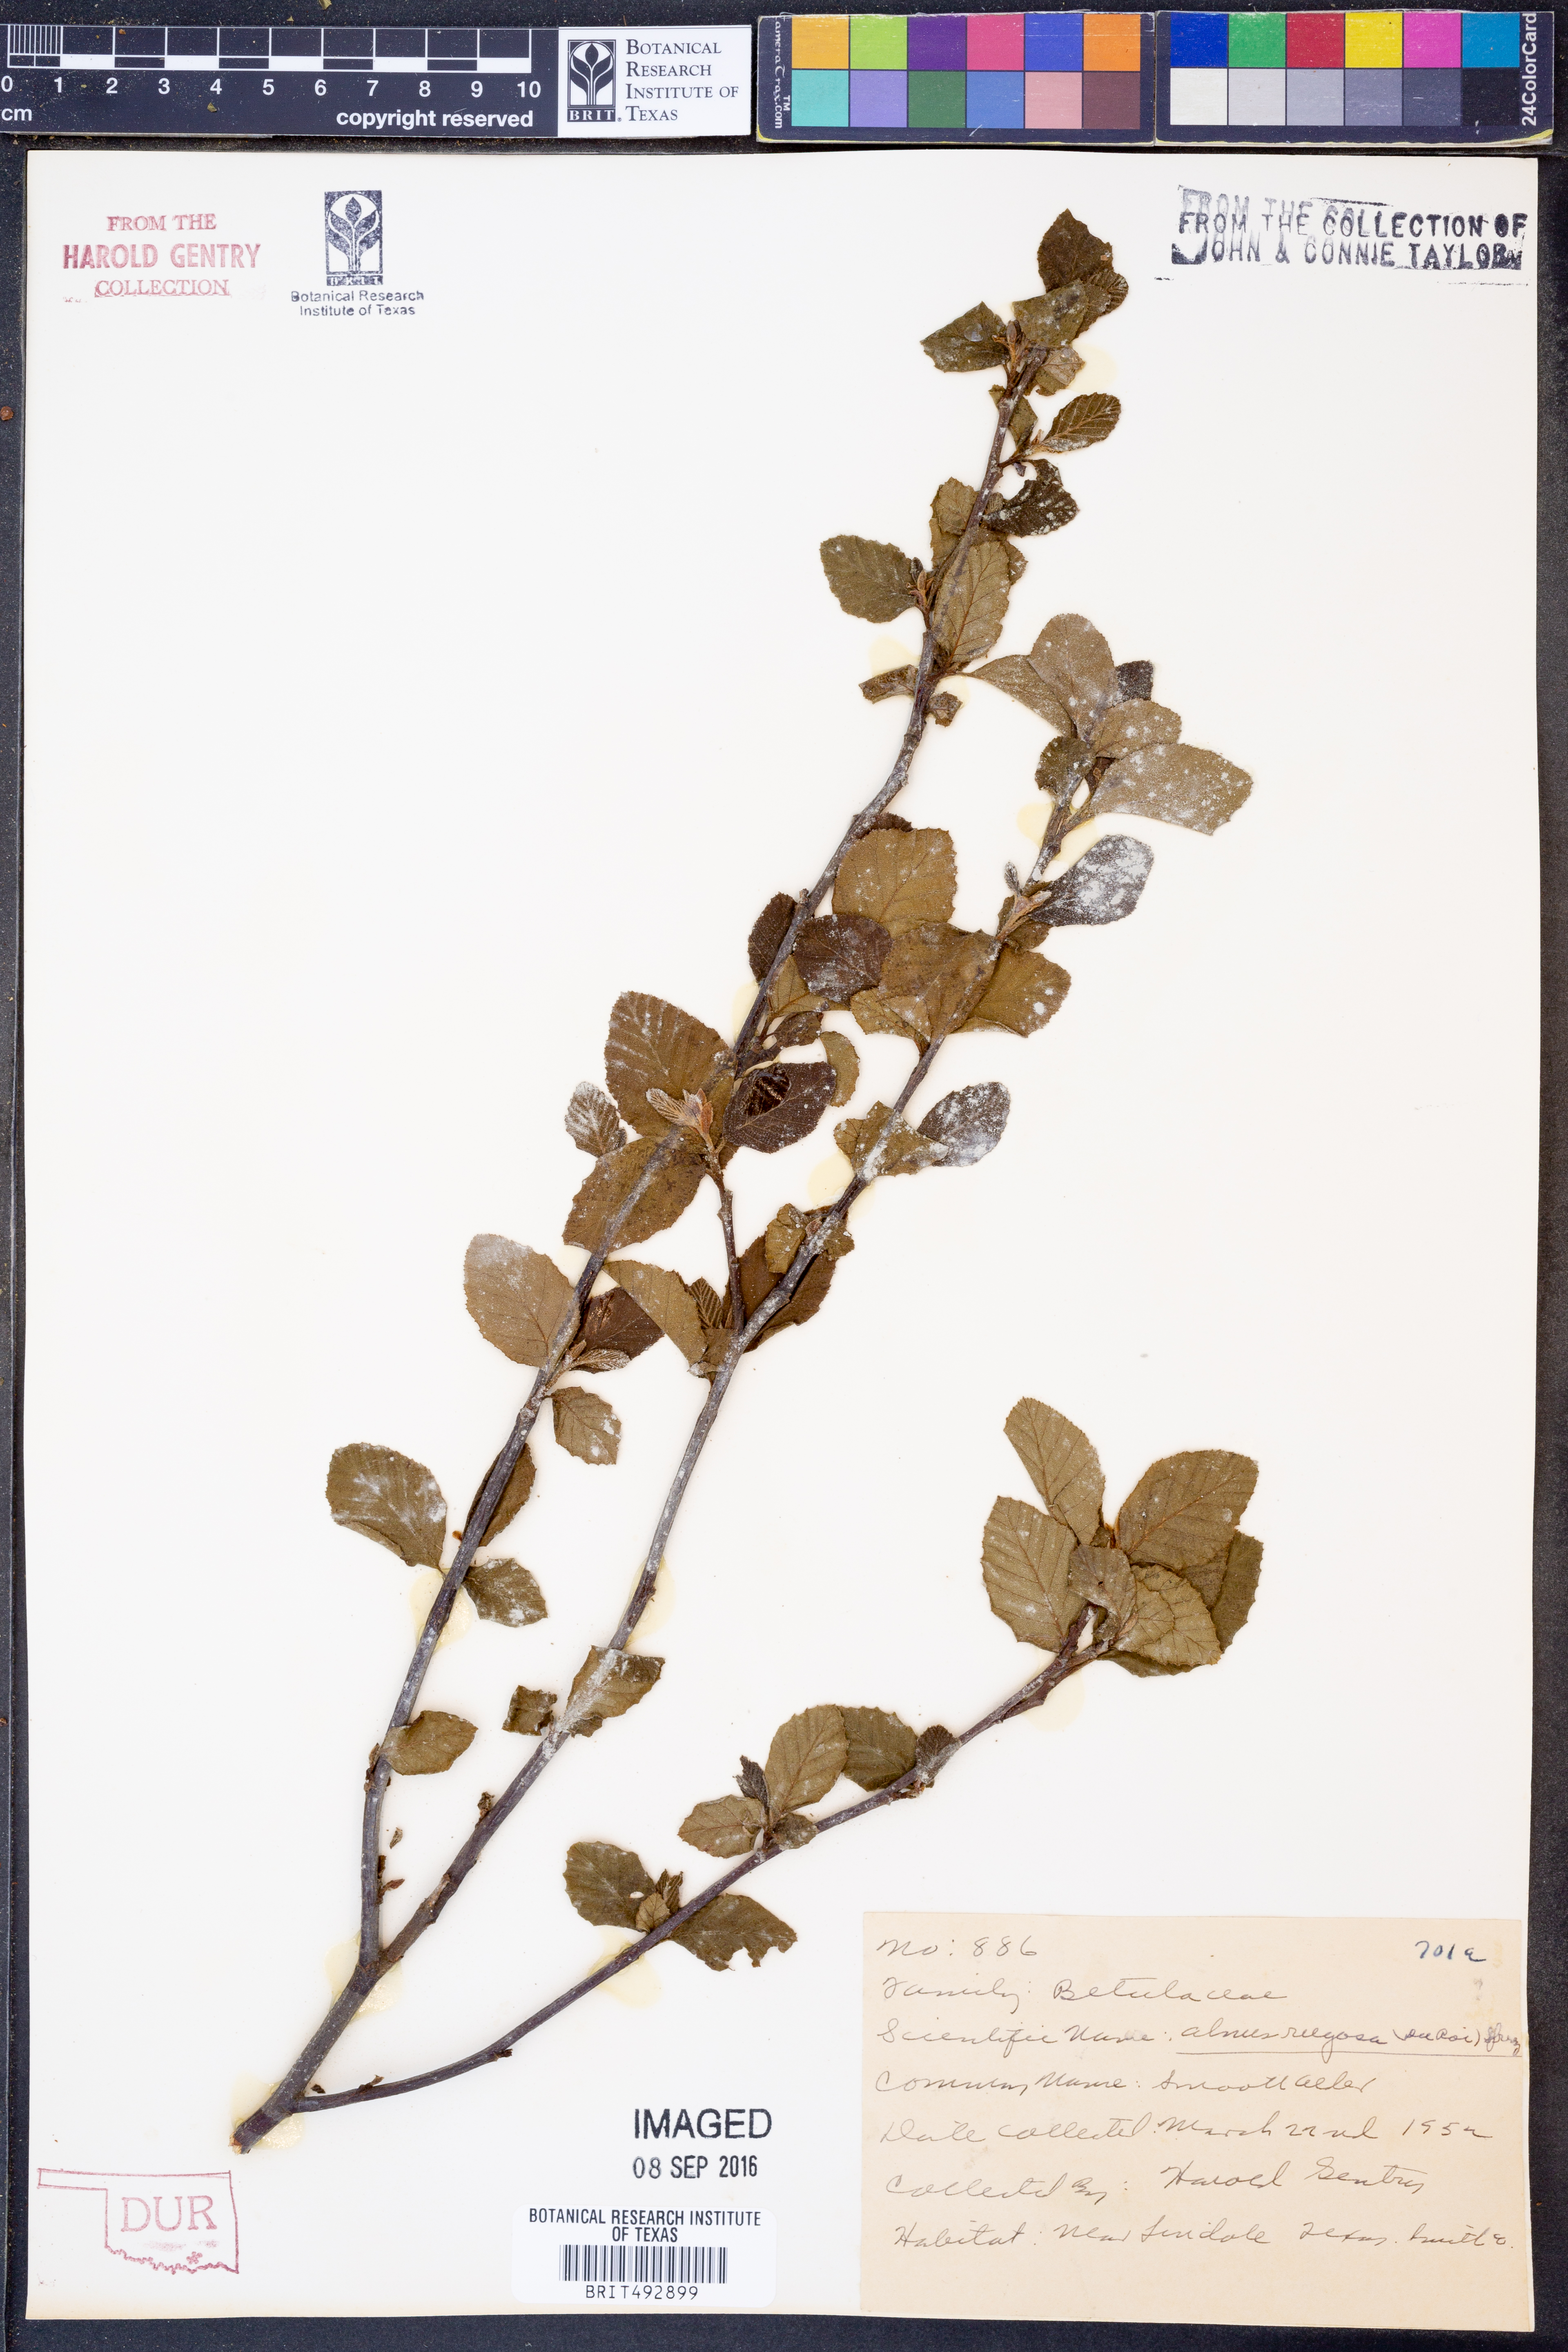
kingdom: Plantae
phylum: Tracheophyta
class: Magnoliopsida
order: Fagales
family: Betulaceae
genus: Alnus
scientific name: Alnus incana
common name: Grey alder
